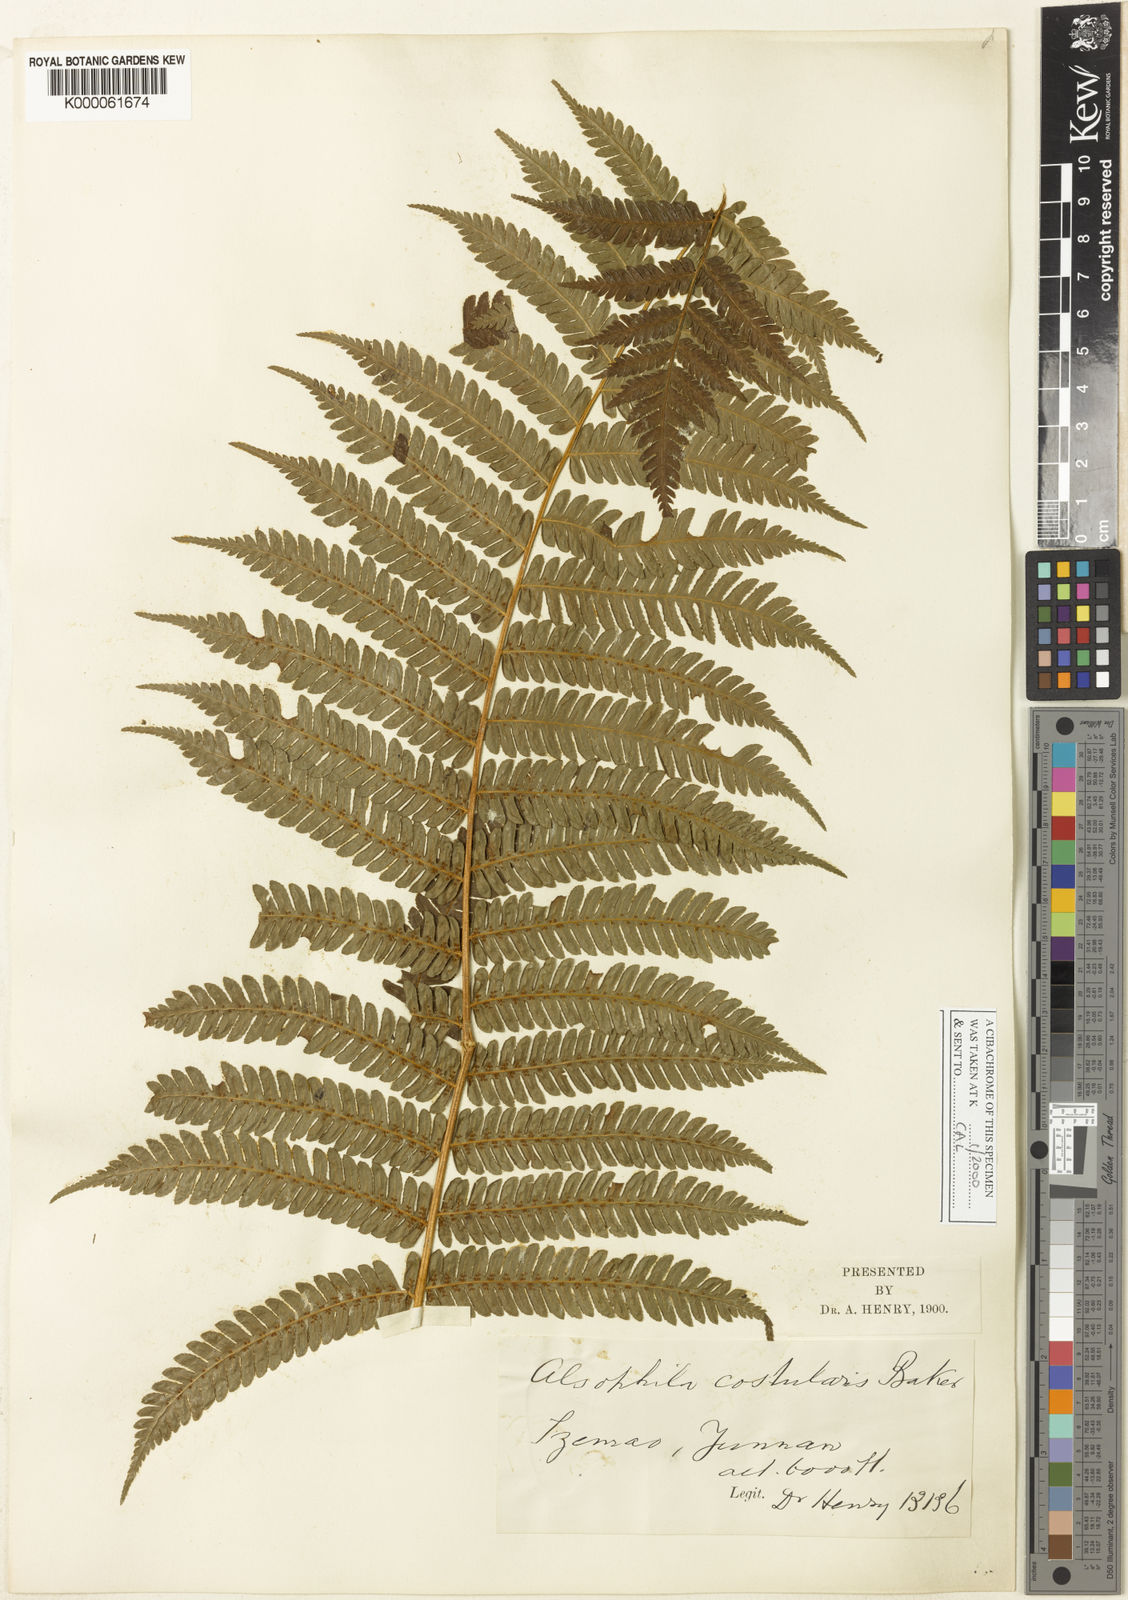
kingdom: Plantae
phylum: Tracheophyta
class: Polypodiopsida
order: Cyatheales
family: Cyatheaceae
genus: Sphaeropteris
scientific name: Sphaeropteris chinensis
